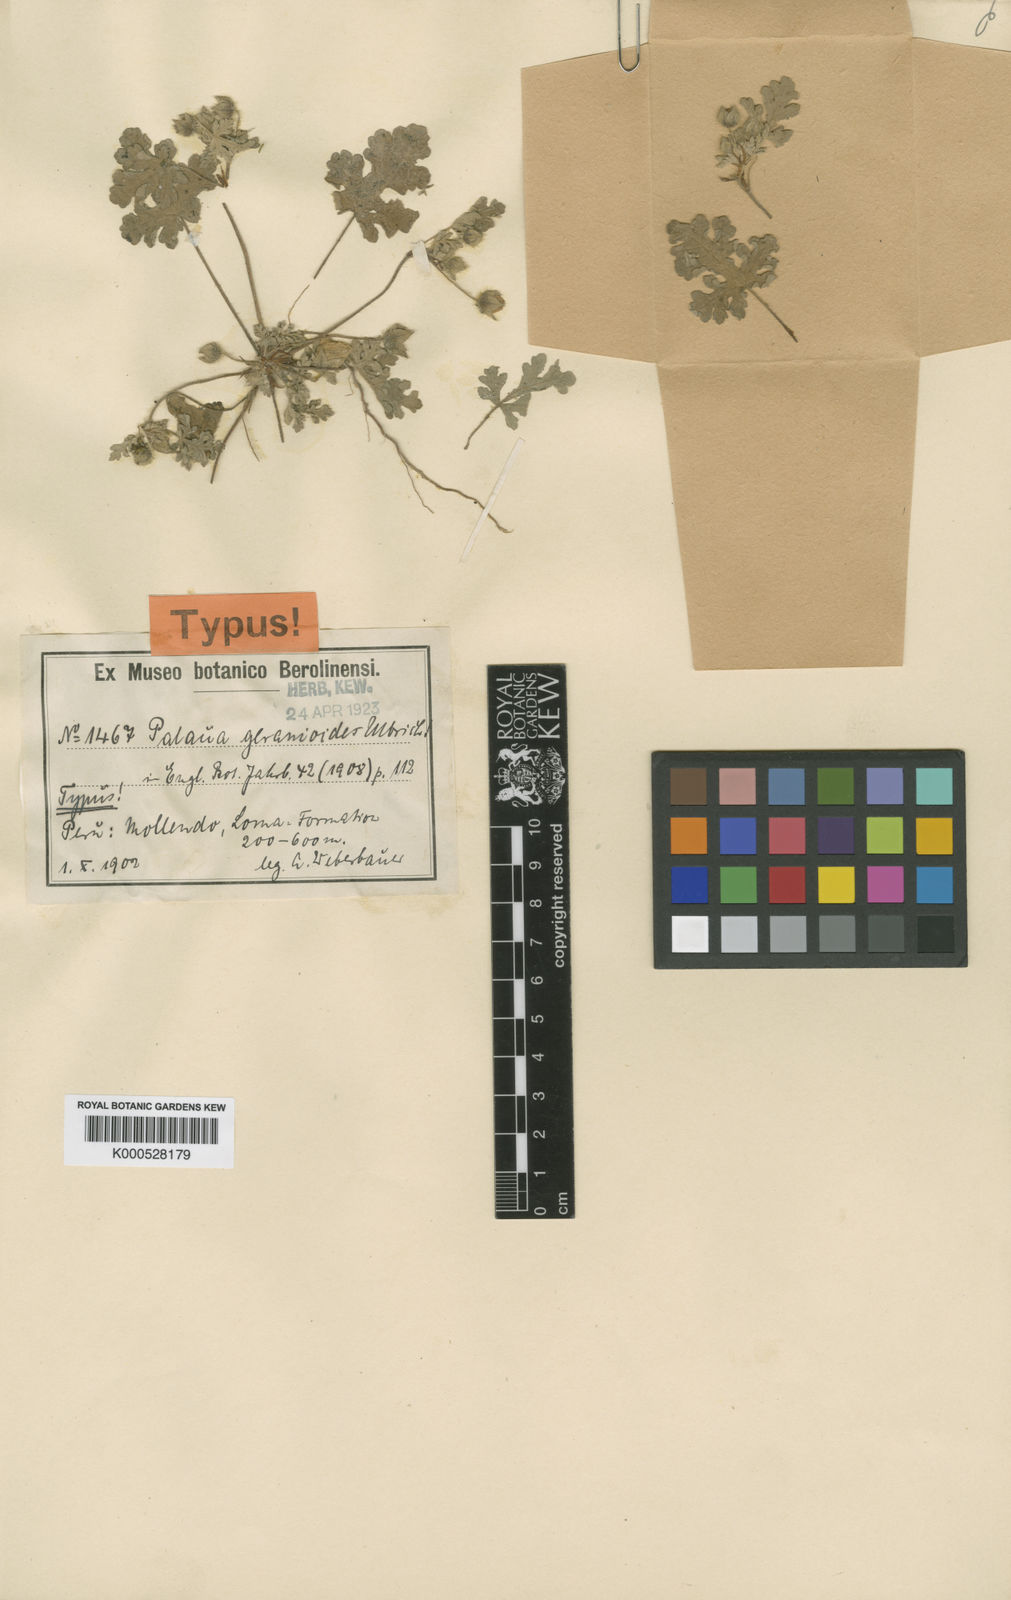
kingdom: Plantae
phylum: Tracheophyta
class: Magnoliopsida
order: Malvales
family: Malvaceae
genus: Palaua
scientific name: Palaua dissecta
